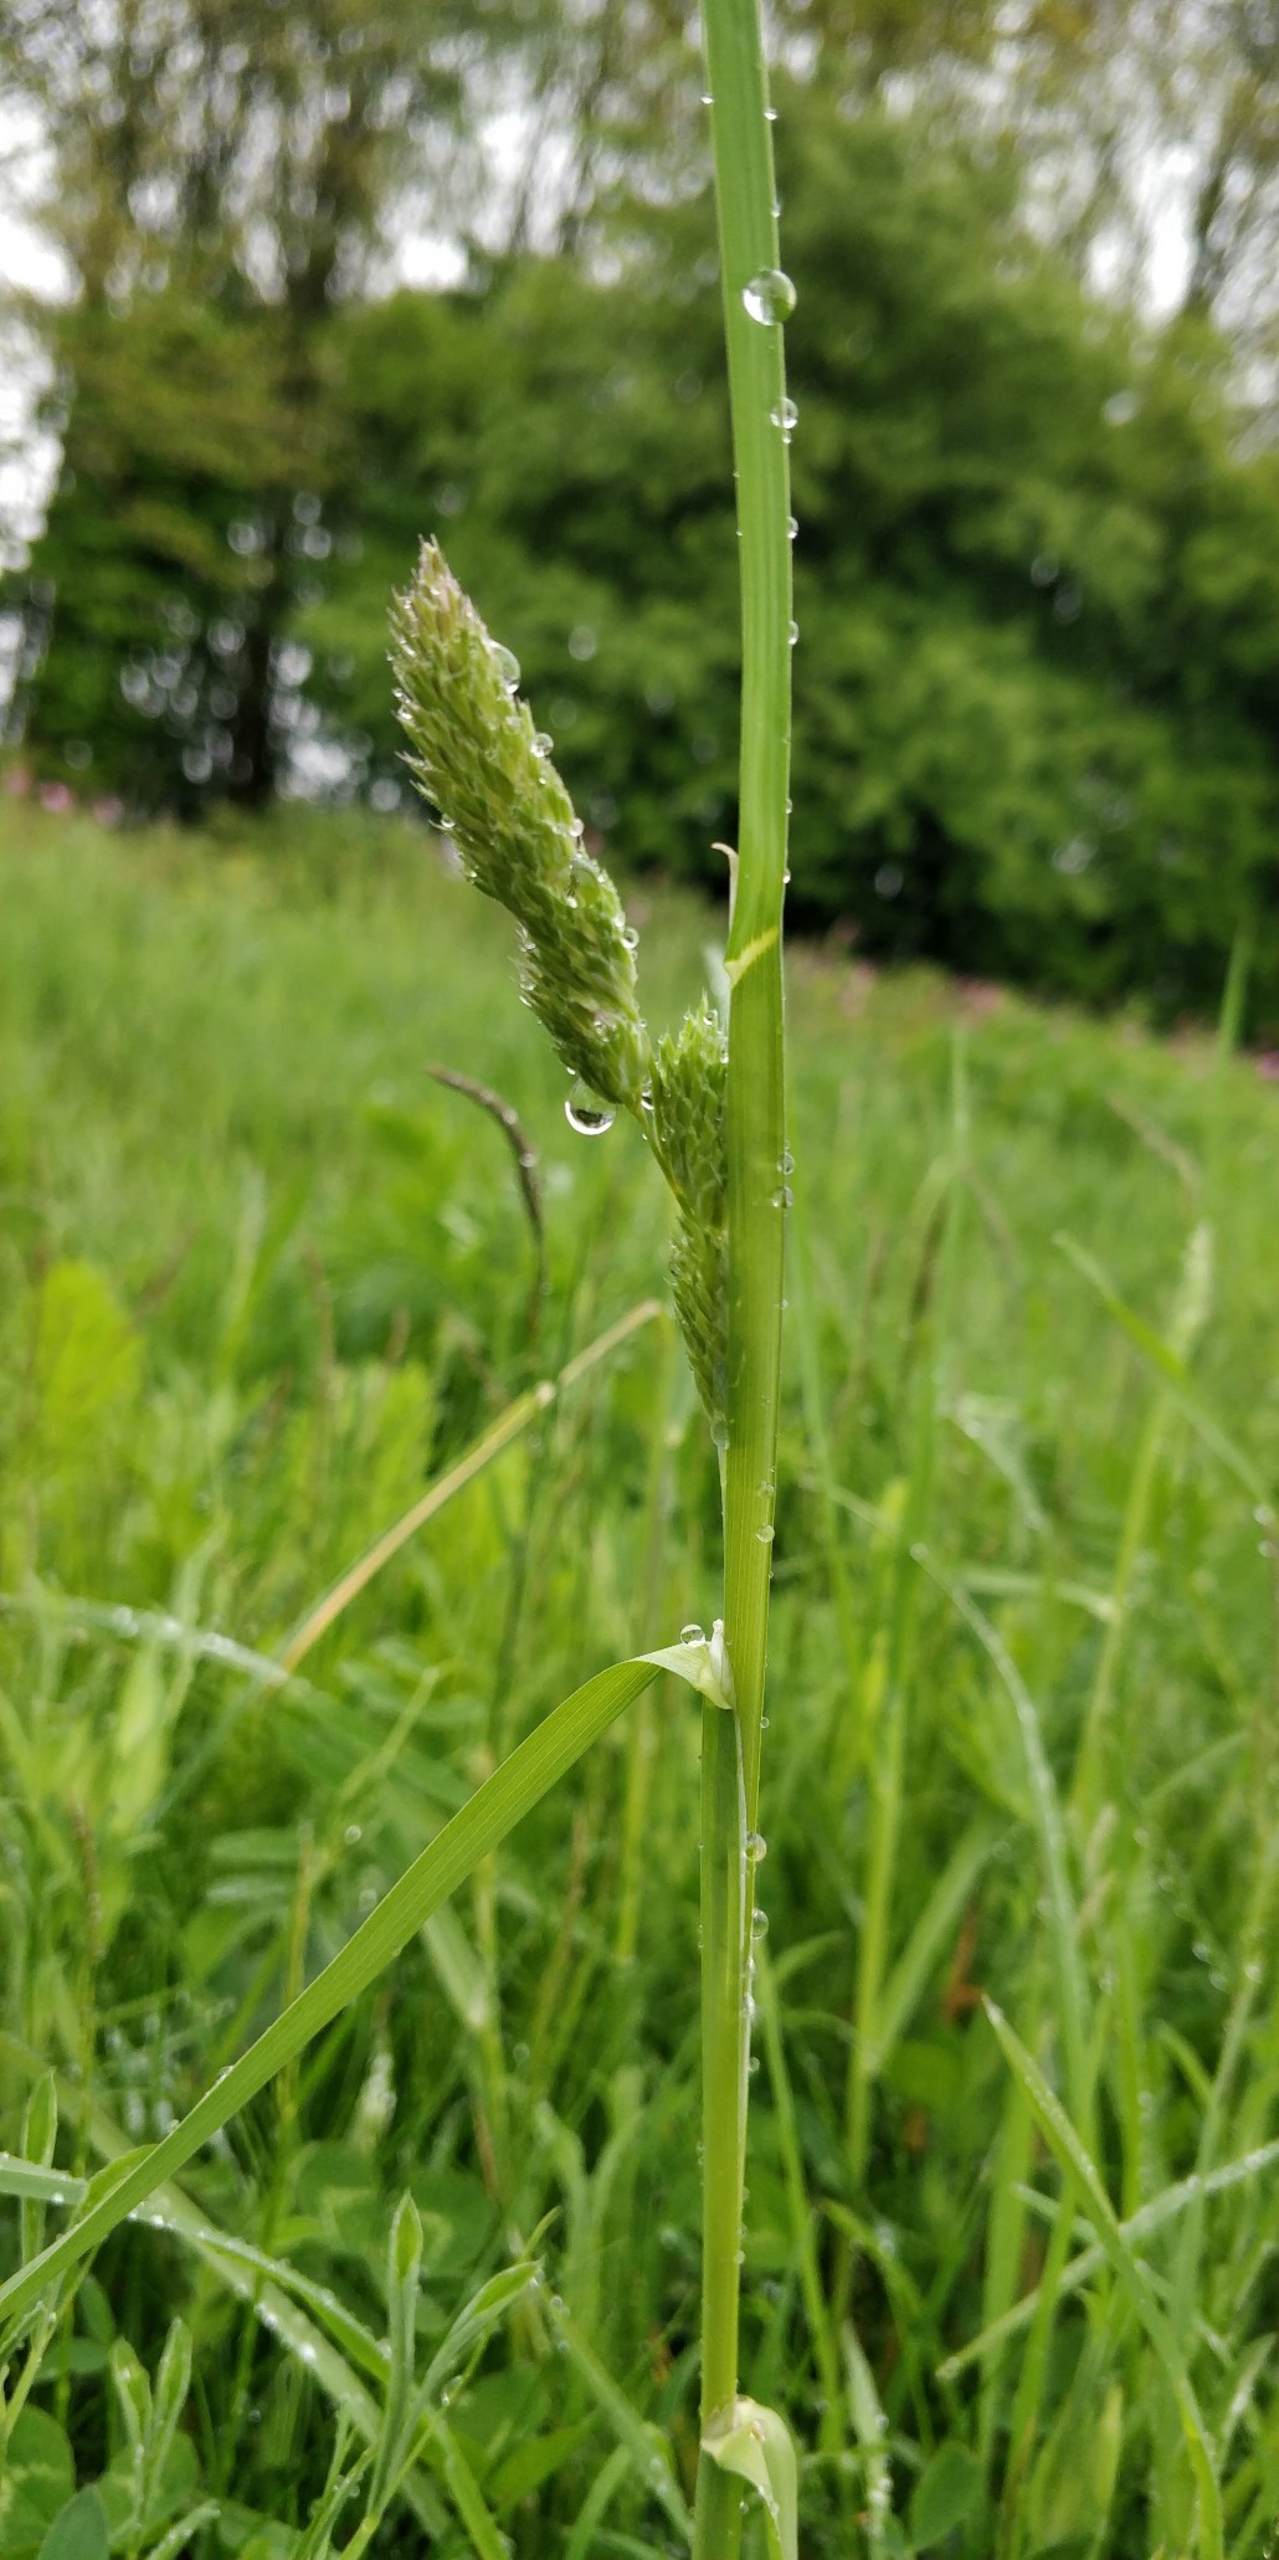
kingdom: Plantae
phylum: Tracheophyta
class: Liliopsida
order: Poales
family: Poaceae
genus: Dactylis
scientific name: Dactylis glomerata
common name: Almindelig hundegræs
